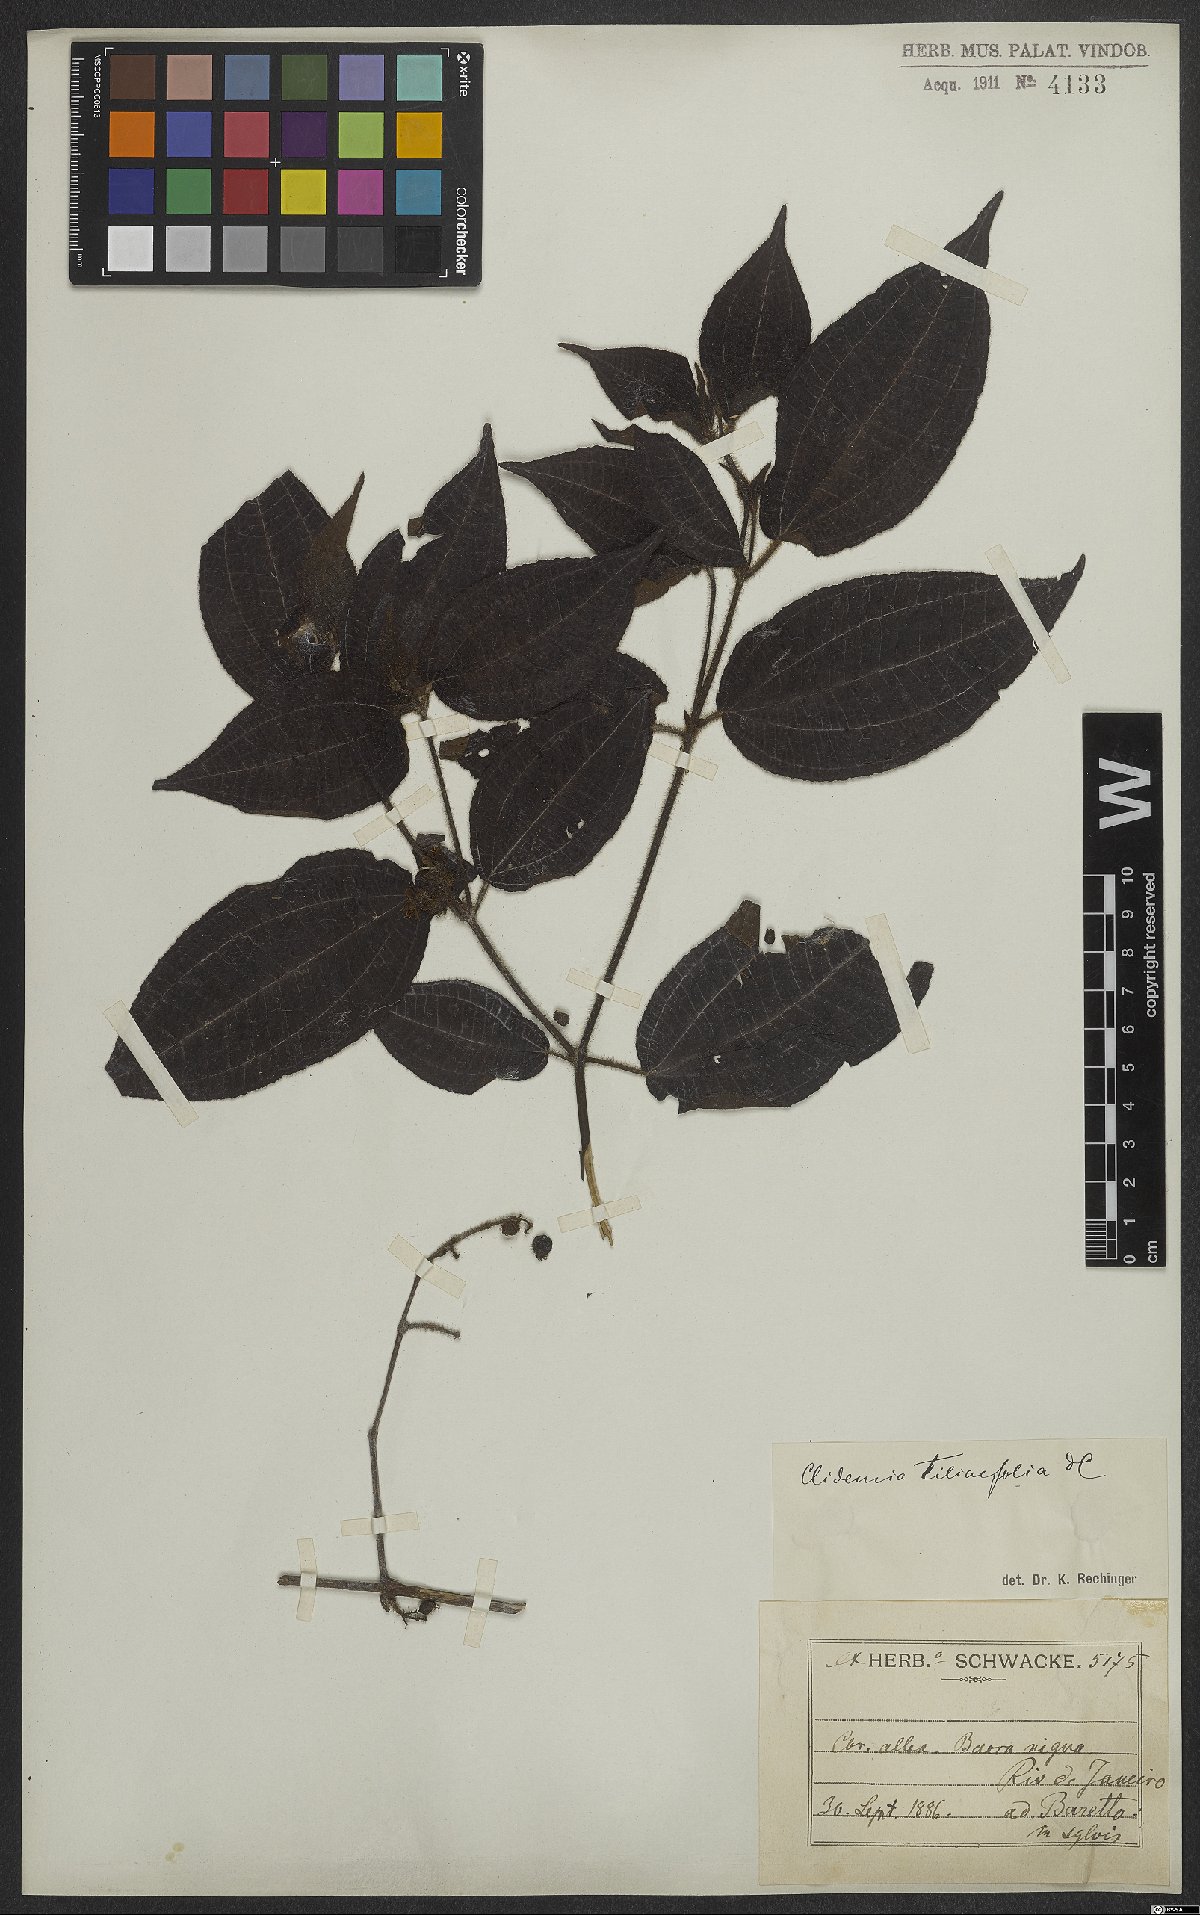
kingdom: Plantae
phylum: Tracheophyta
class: Magnoliopsida
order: Myrtales
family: Melastomataceae
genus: Miconia
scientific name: Miconia crenata
